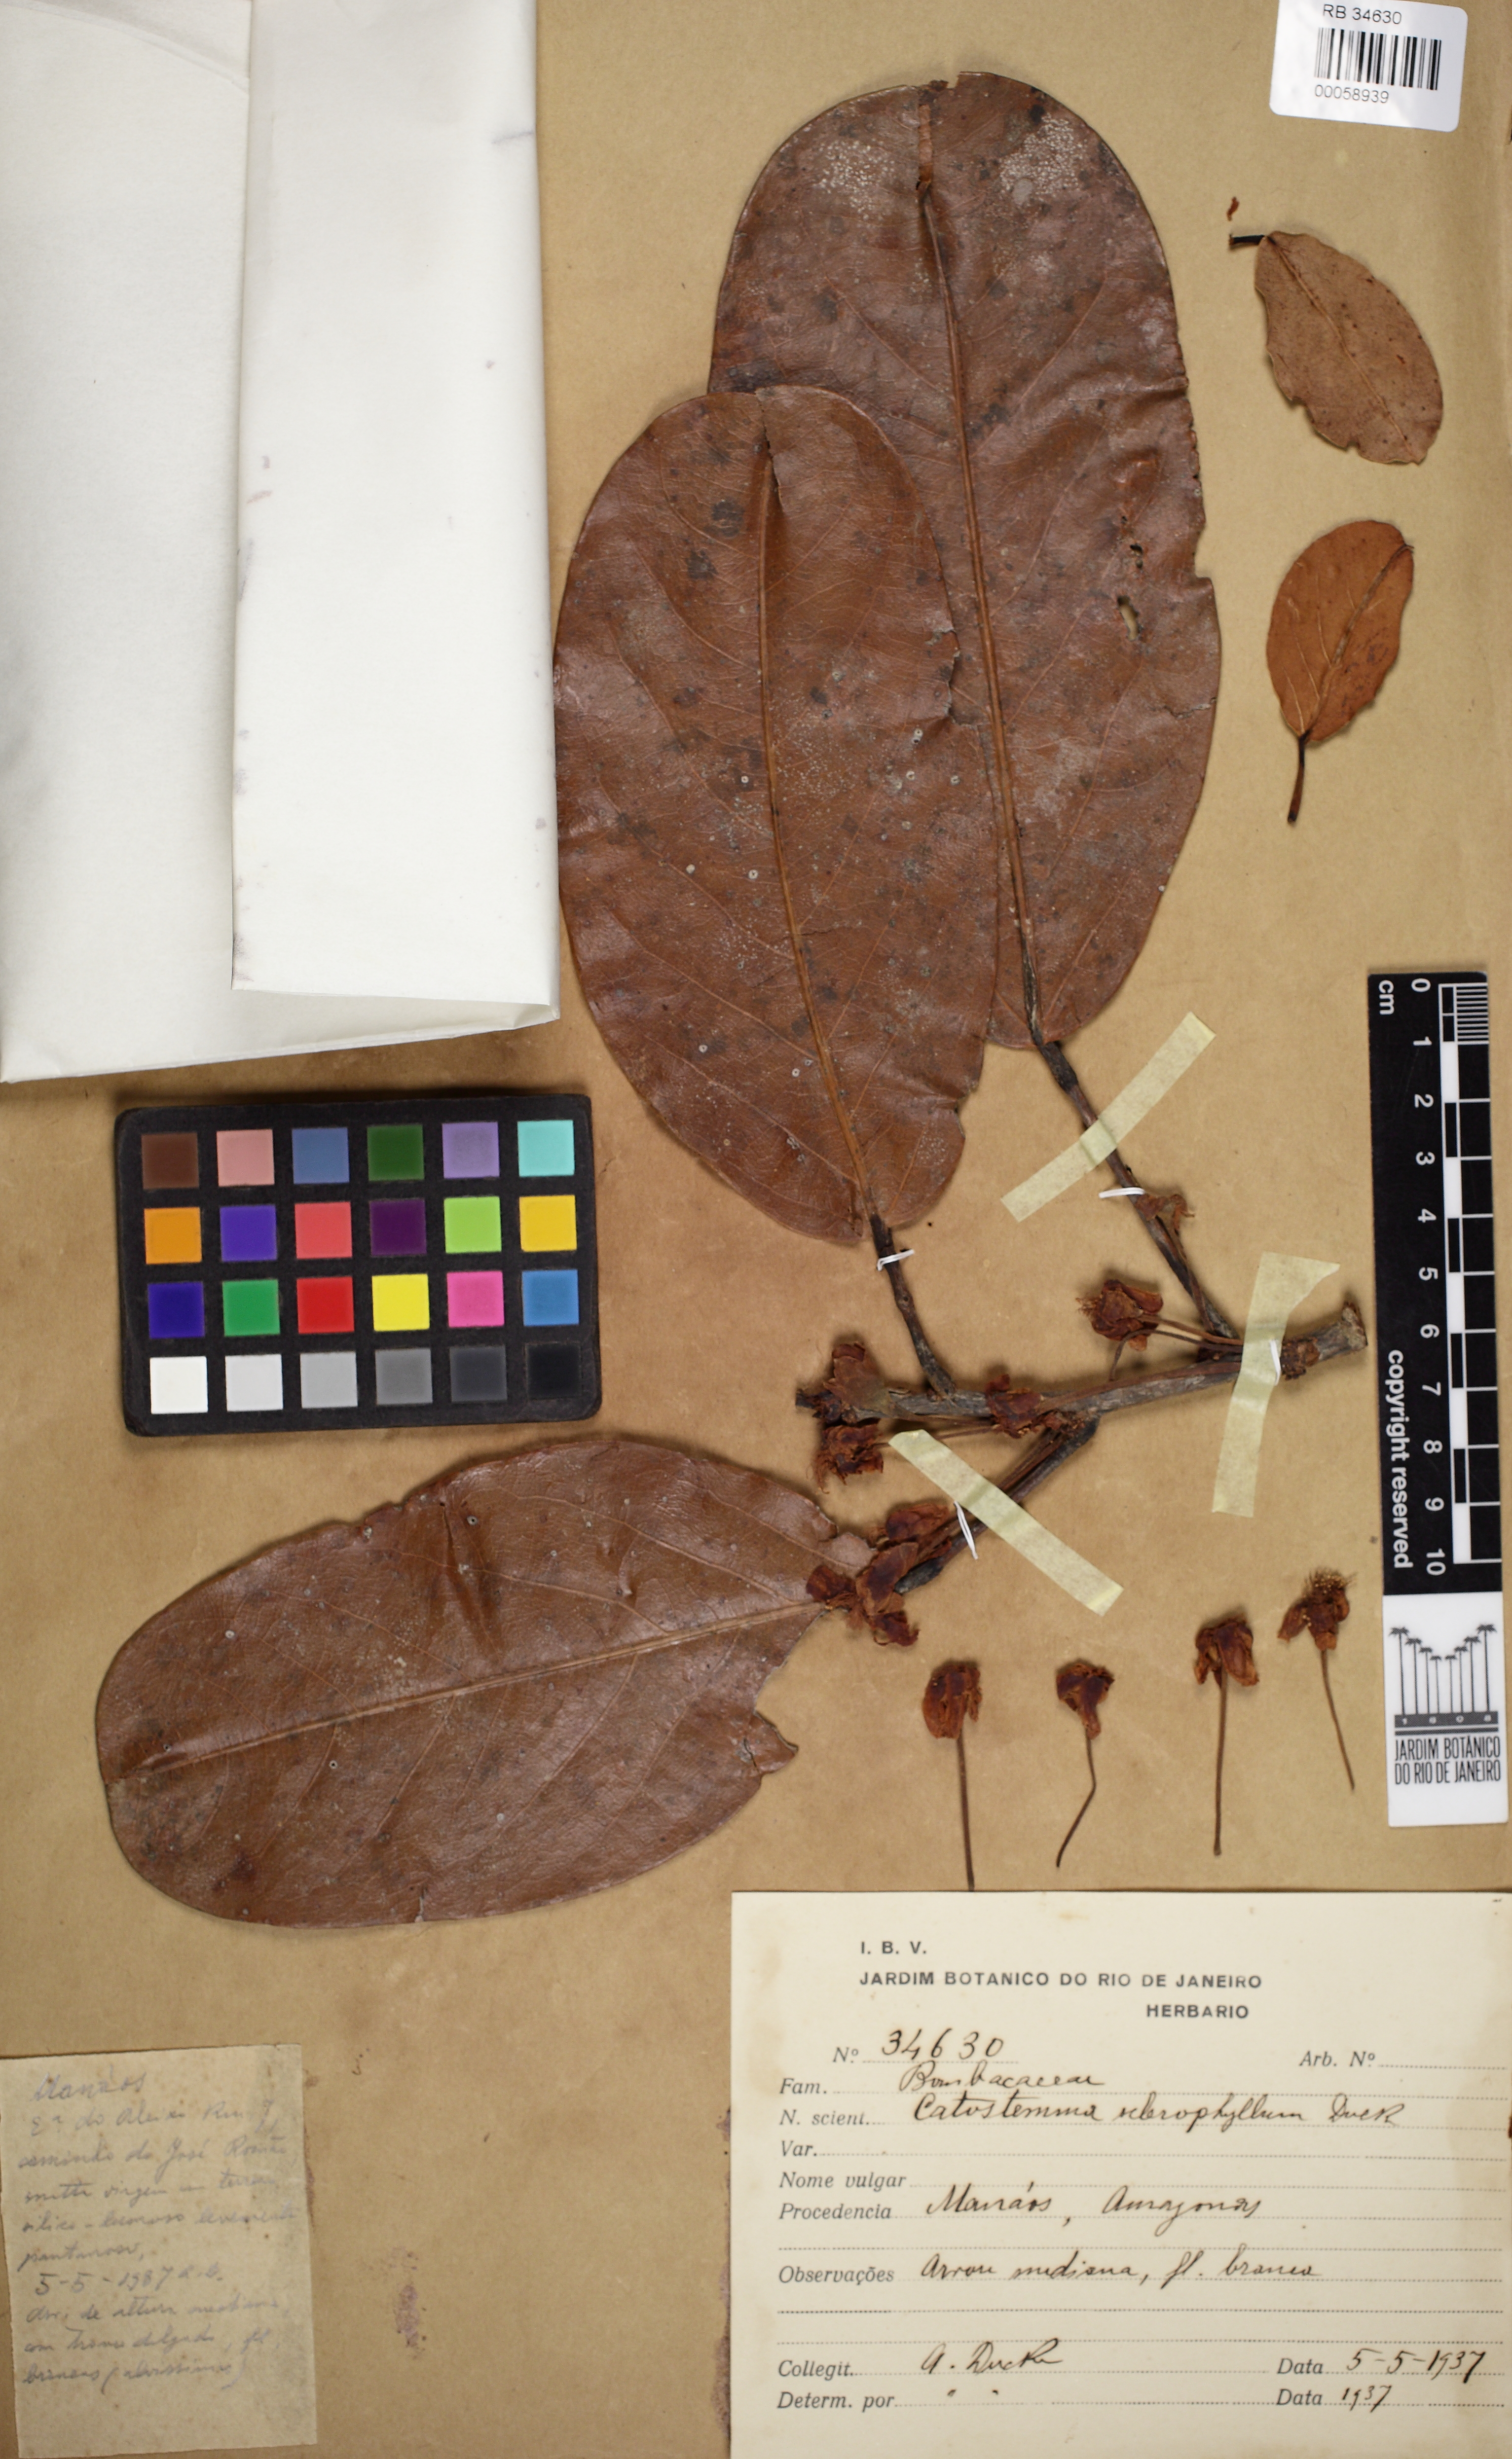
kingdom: Plantae
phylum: Tracheophyta
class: Magnoliopsida
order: Malvales
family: Malvaceae
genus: Catostemma
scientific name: Catostemma sclerophyllum
